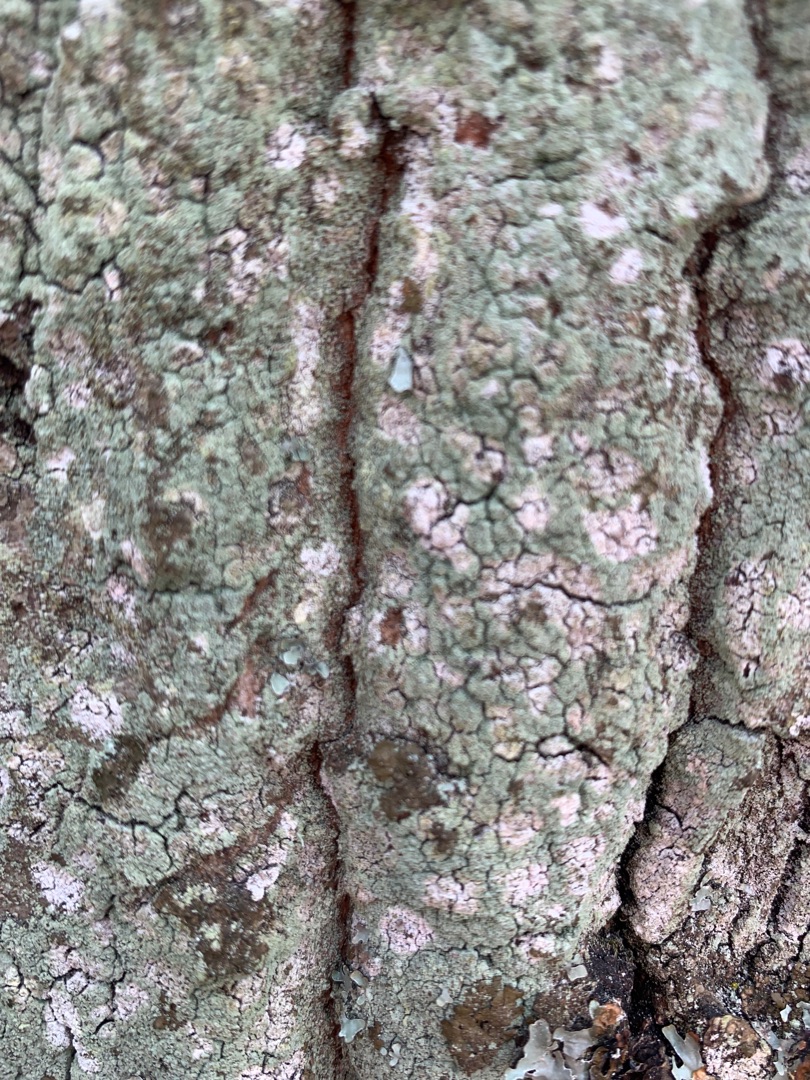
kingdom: Fungi
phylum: Ascomycota
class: Lecanoromycetes
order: Lecanorales
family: Stereocaulaceae
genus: Lepraria
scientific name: Lepraria
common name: Støvlav
